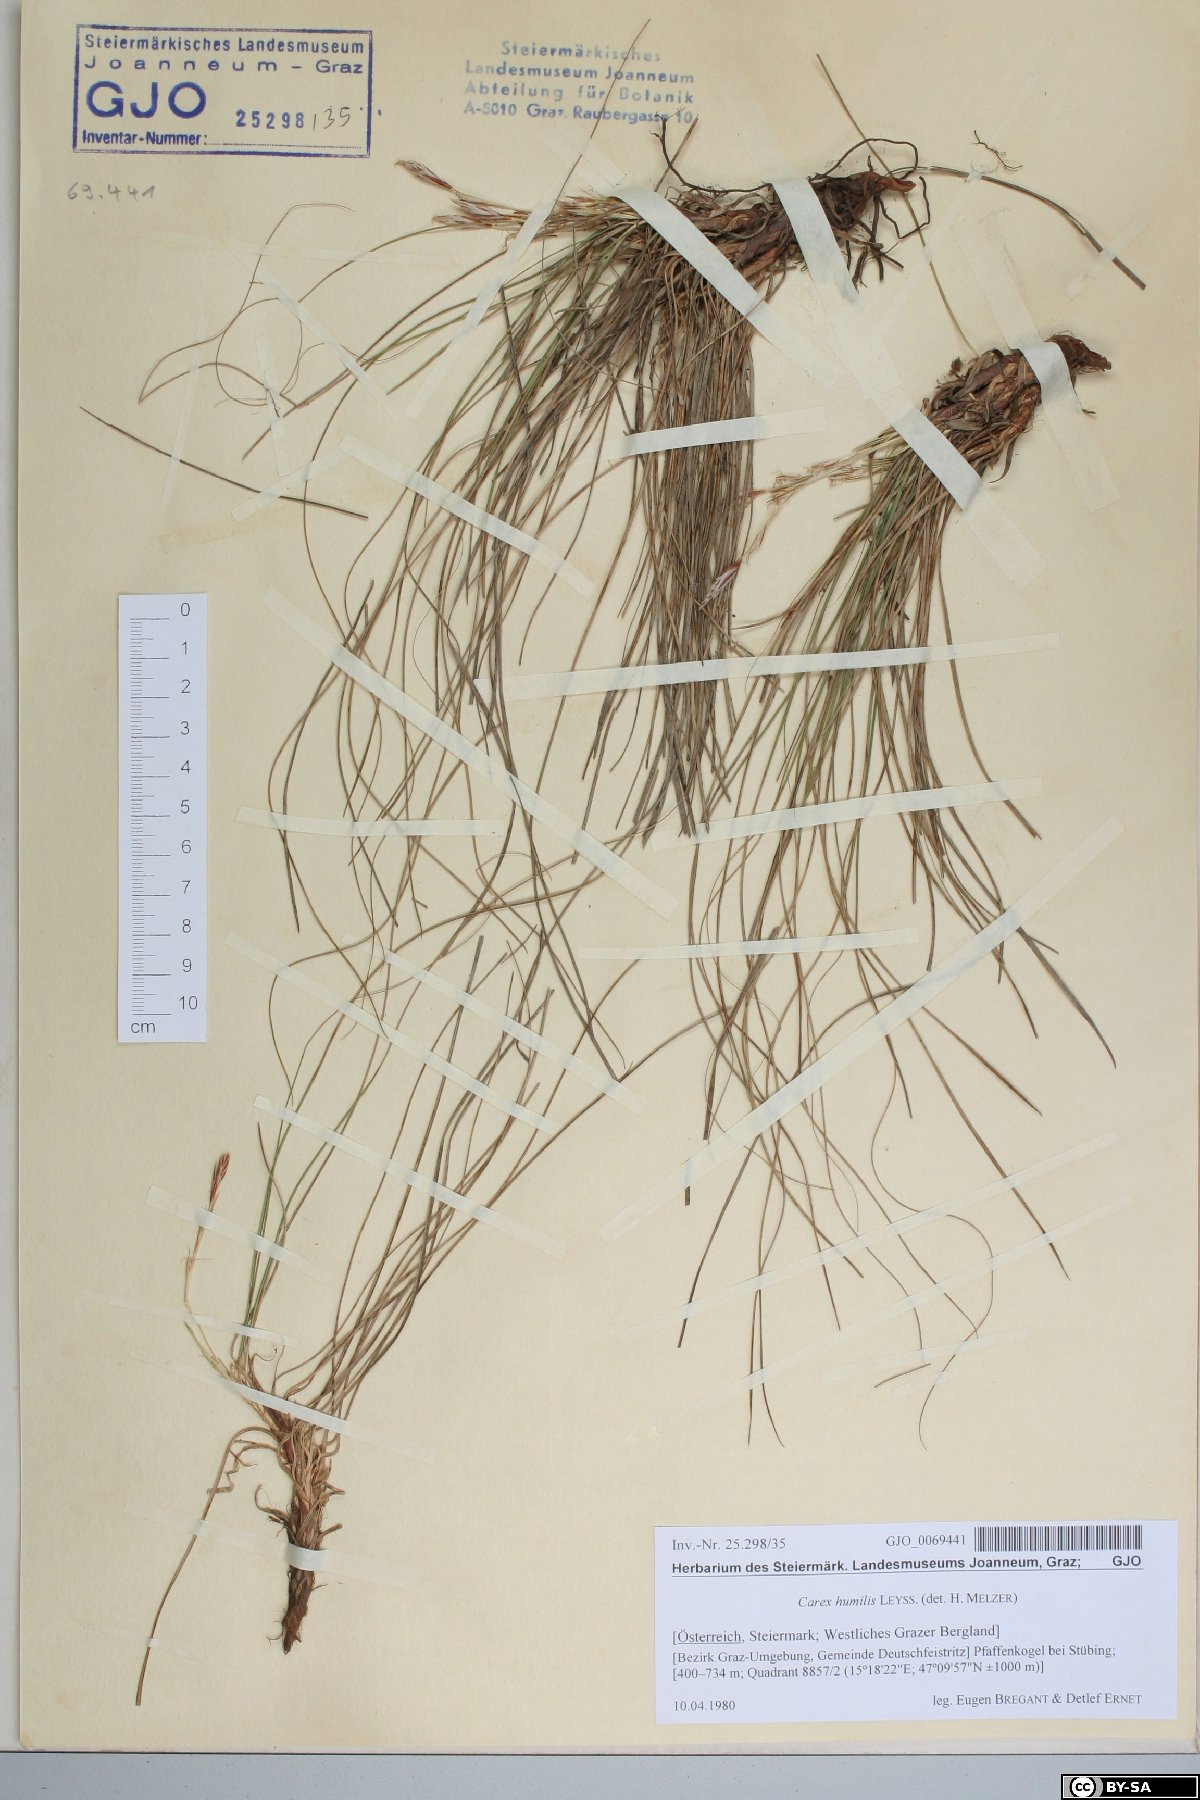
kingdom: Plantae
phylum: Tracheophyta
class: Liliopsida
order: Poales
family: Cyperaceae
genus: Carex
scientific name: Carex humilis
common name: Dwarf sedge
